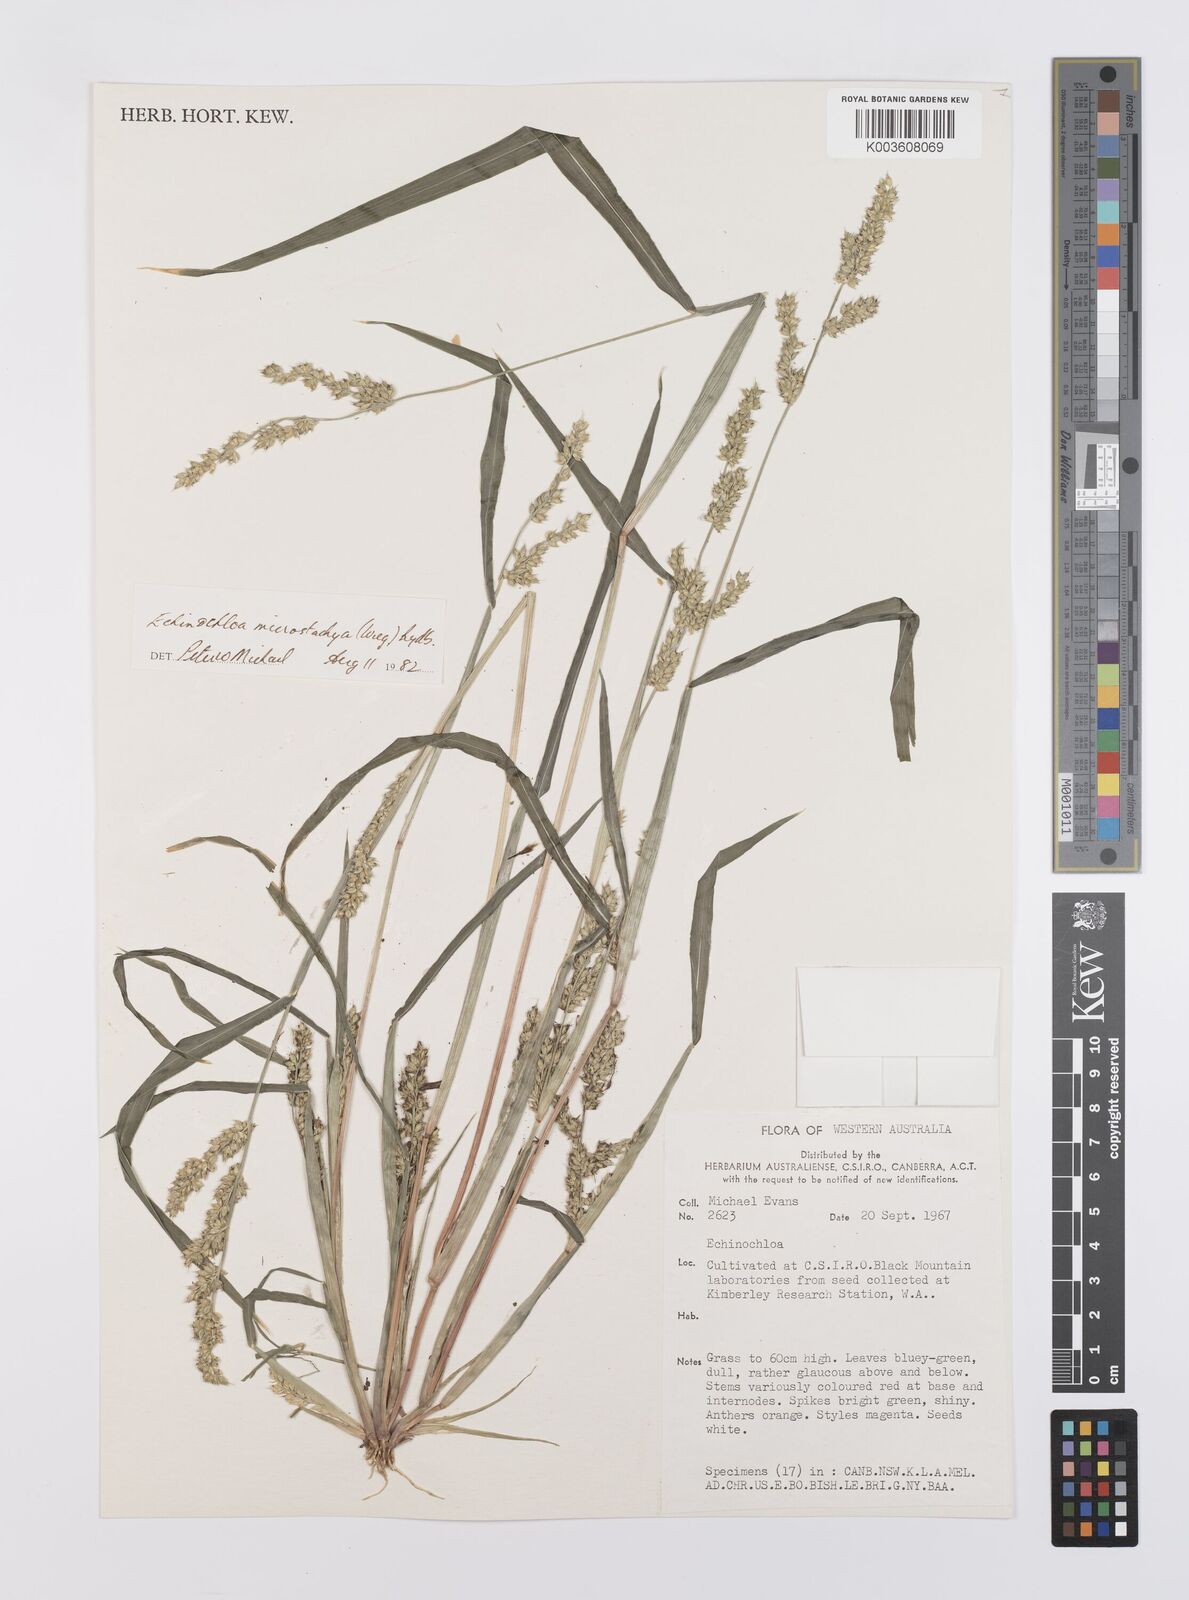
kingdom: Plantae
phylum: Tracheophyta
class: Liliopsida
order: Poales
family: Poaceae
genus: Echinochloa
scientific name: Echinochloa muricata
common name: American barnyard grass
